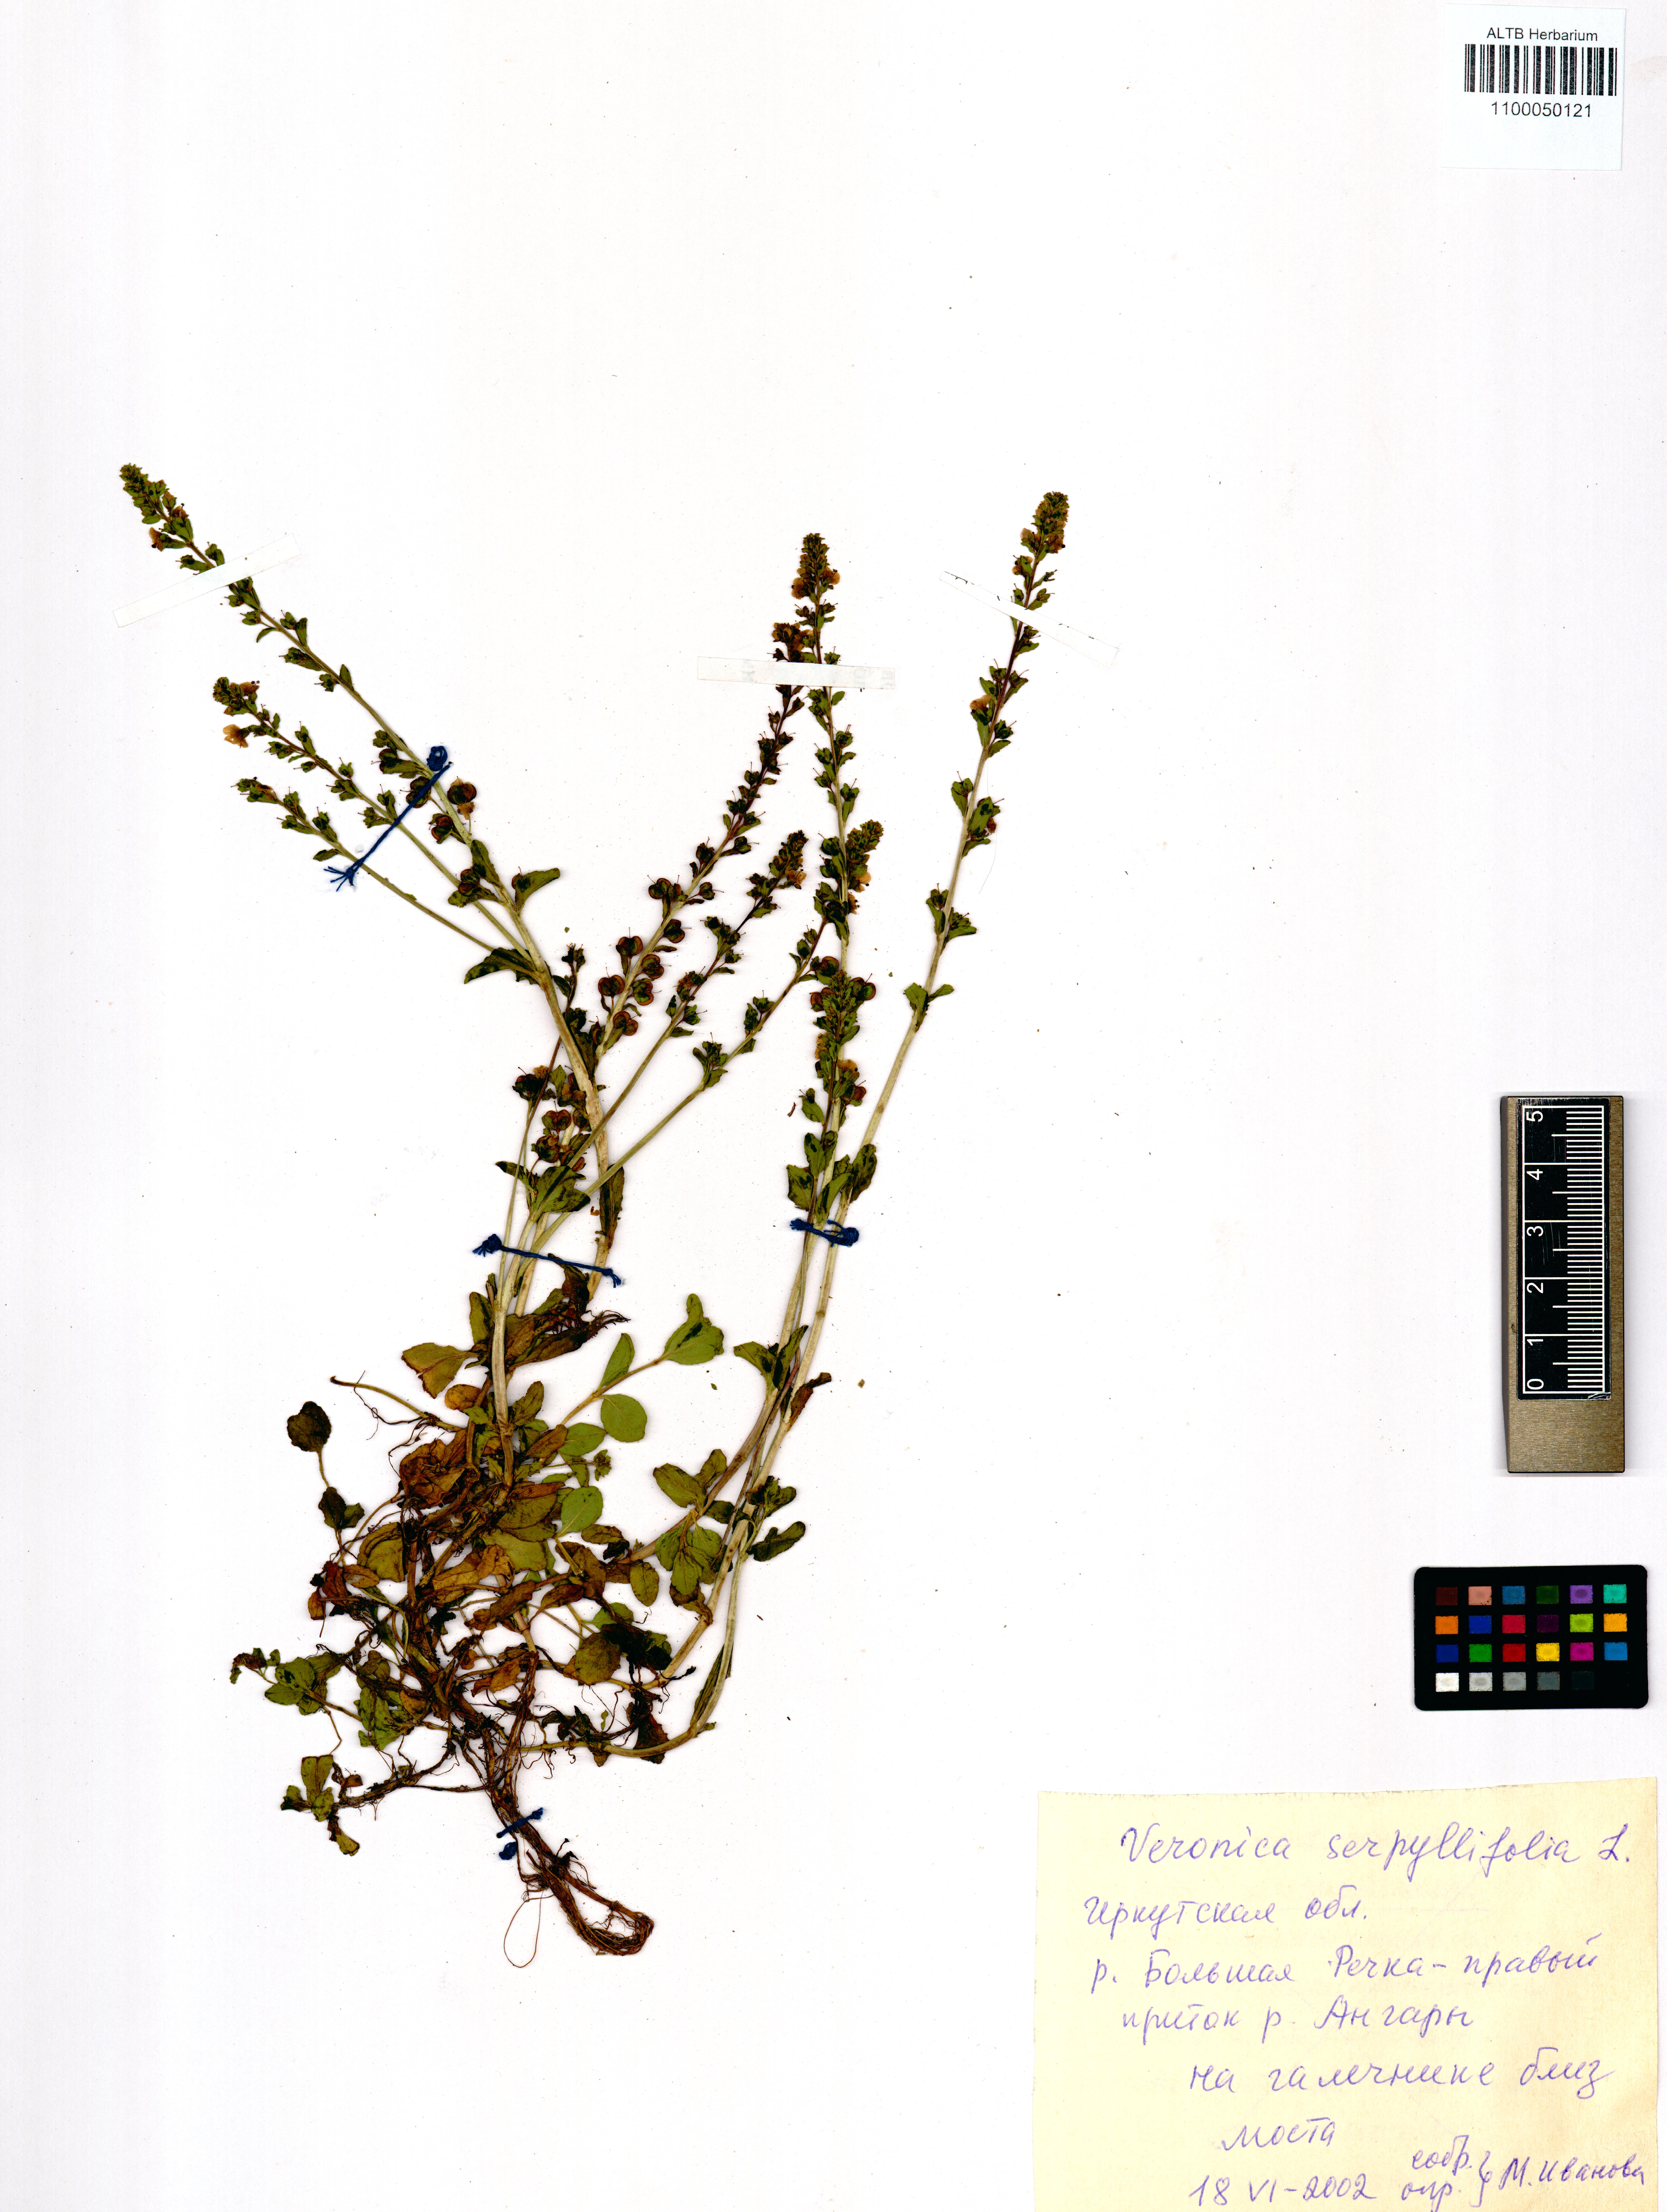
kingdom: Plantae
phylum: Tracheophyta
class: Magnoliopsida
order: Lamiales
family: Plantaginaceae
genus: Veronica
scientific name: Veronica serpyllifolia
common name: Thyme-leaved speedwell
